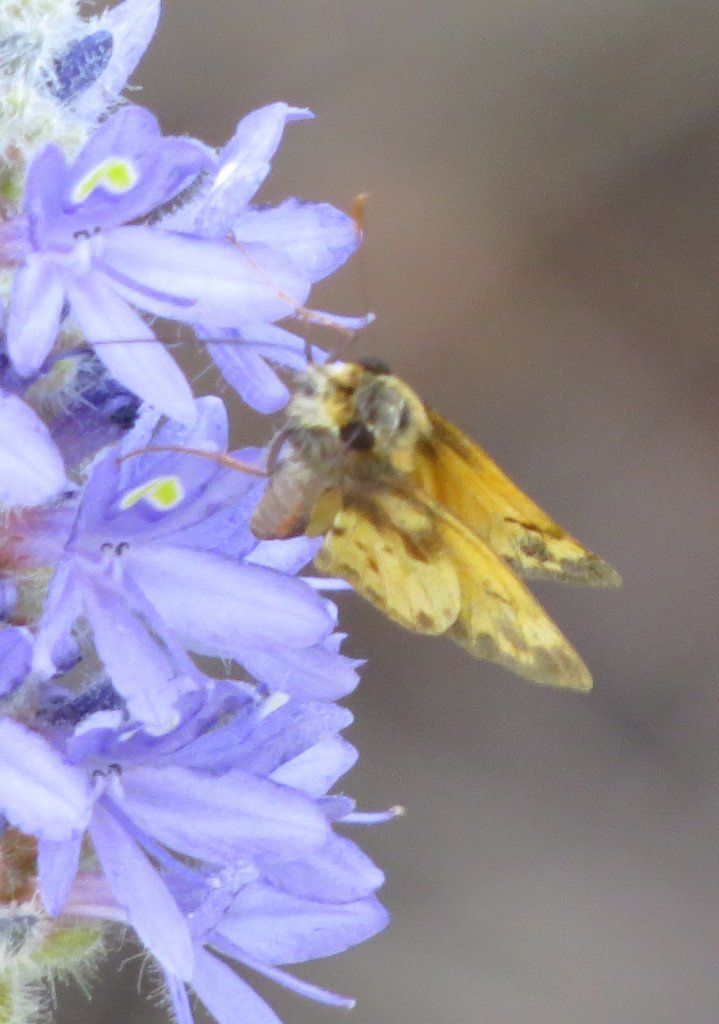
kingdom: Animalia
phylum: Arthropoda
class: Insecta
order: Lepidoptera
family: Hesperiidae
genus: Lon
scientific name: Lon zabulon
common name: Zabulon Skipper
